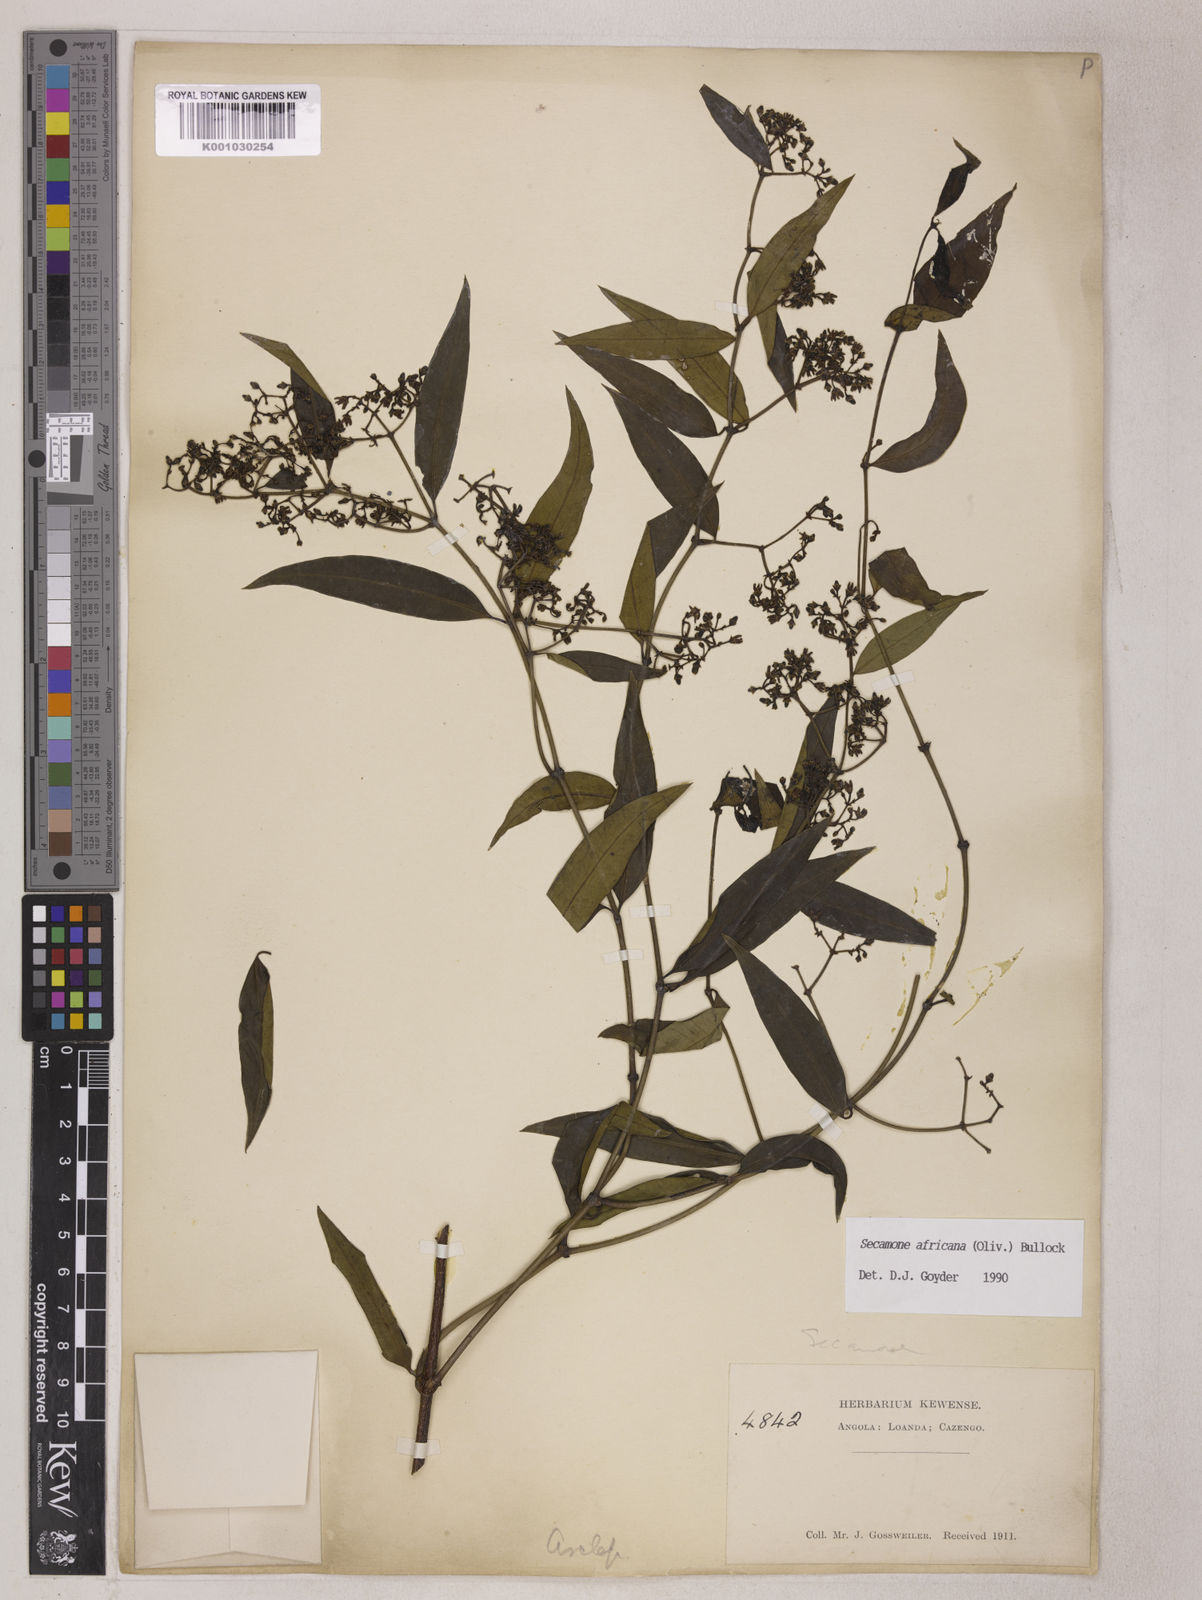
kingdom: Plantae
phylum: Tracheophyta
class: Magnoliopsida
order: Gentianales
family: Apocynaceae
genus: Secamone
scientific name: Secamone africana
